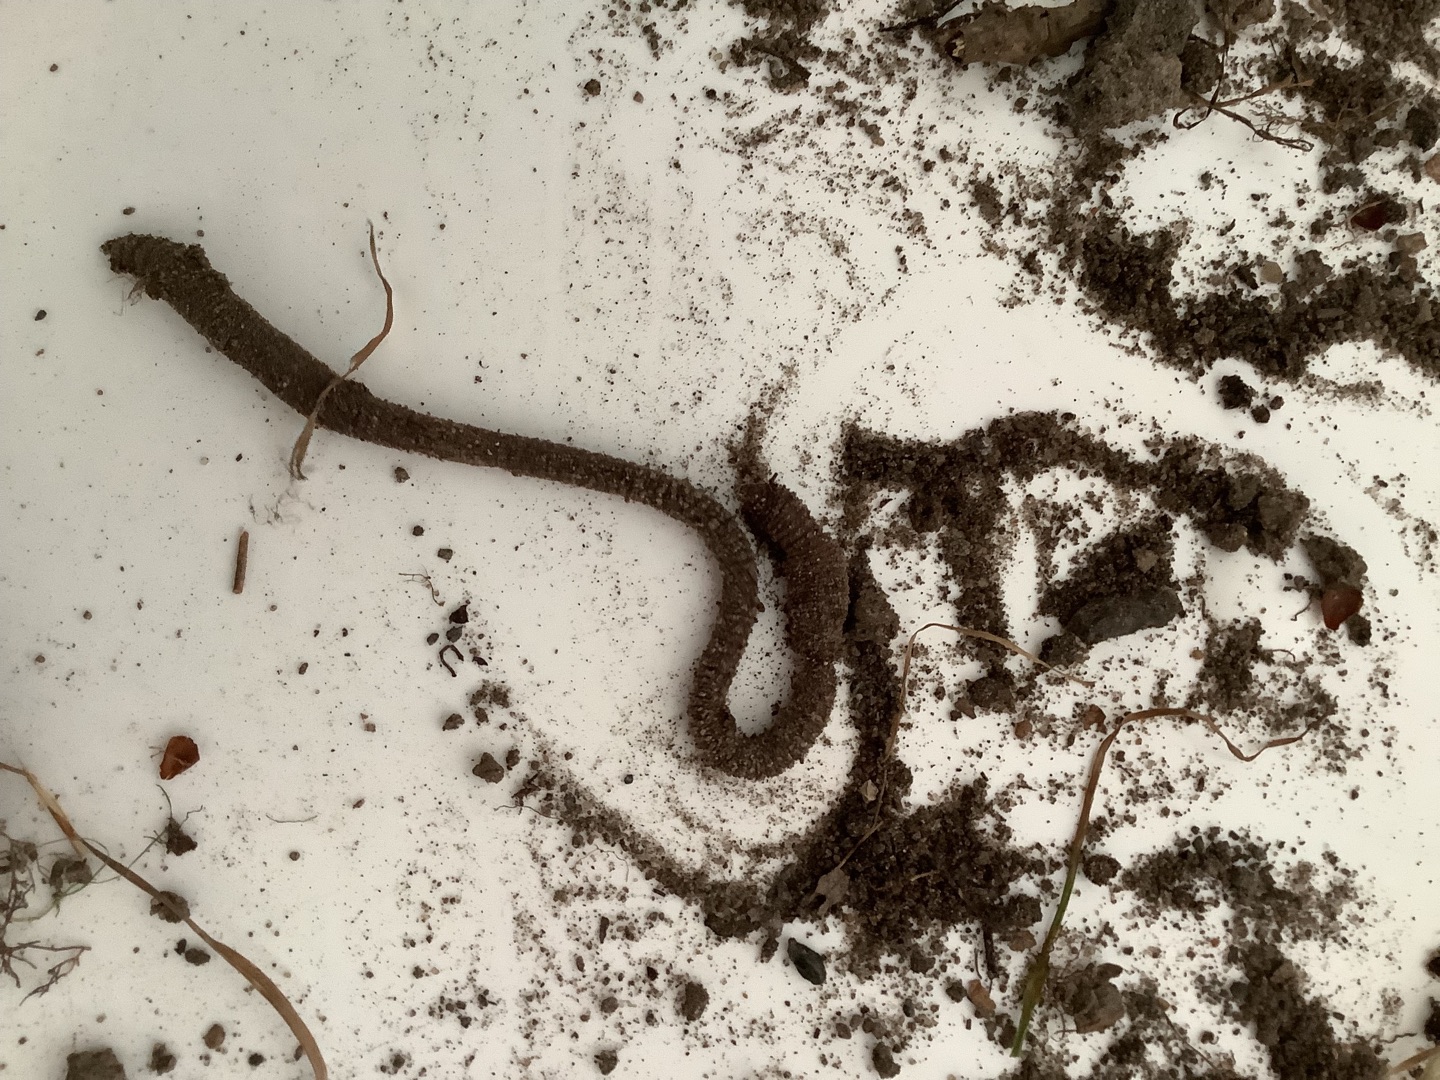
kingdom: Animalia
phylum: Annelida
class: Clitellata
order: Crassiclitellata
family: Lumbricidae
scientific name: Lumbricidae
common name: Regnorme
